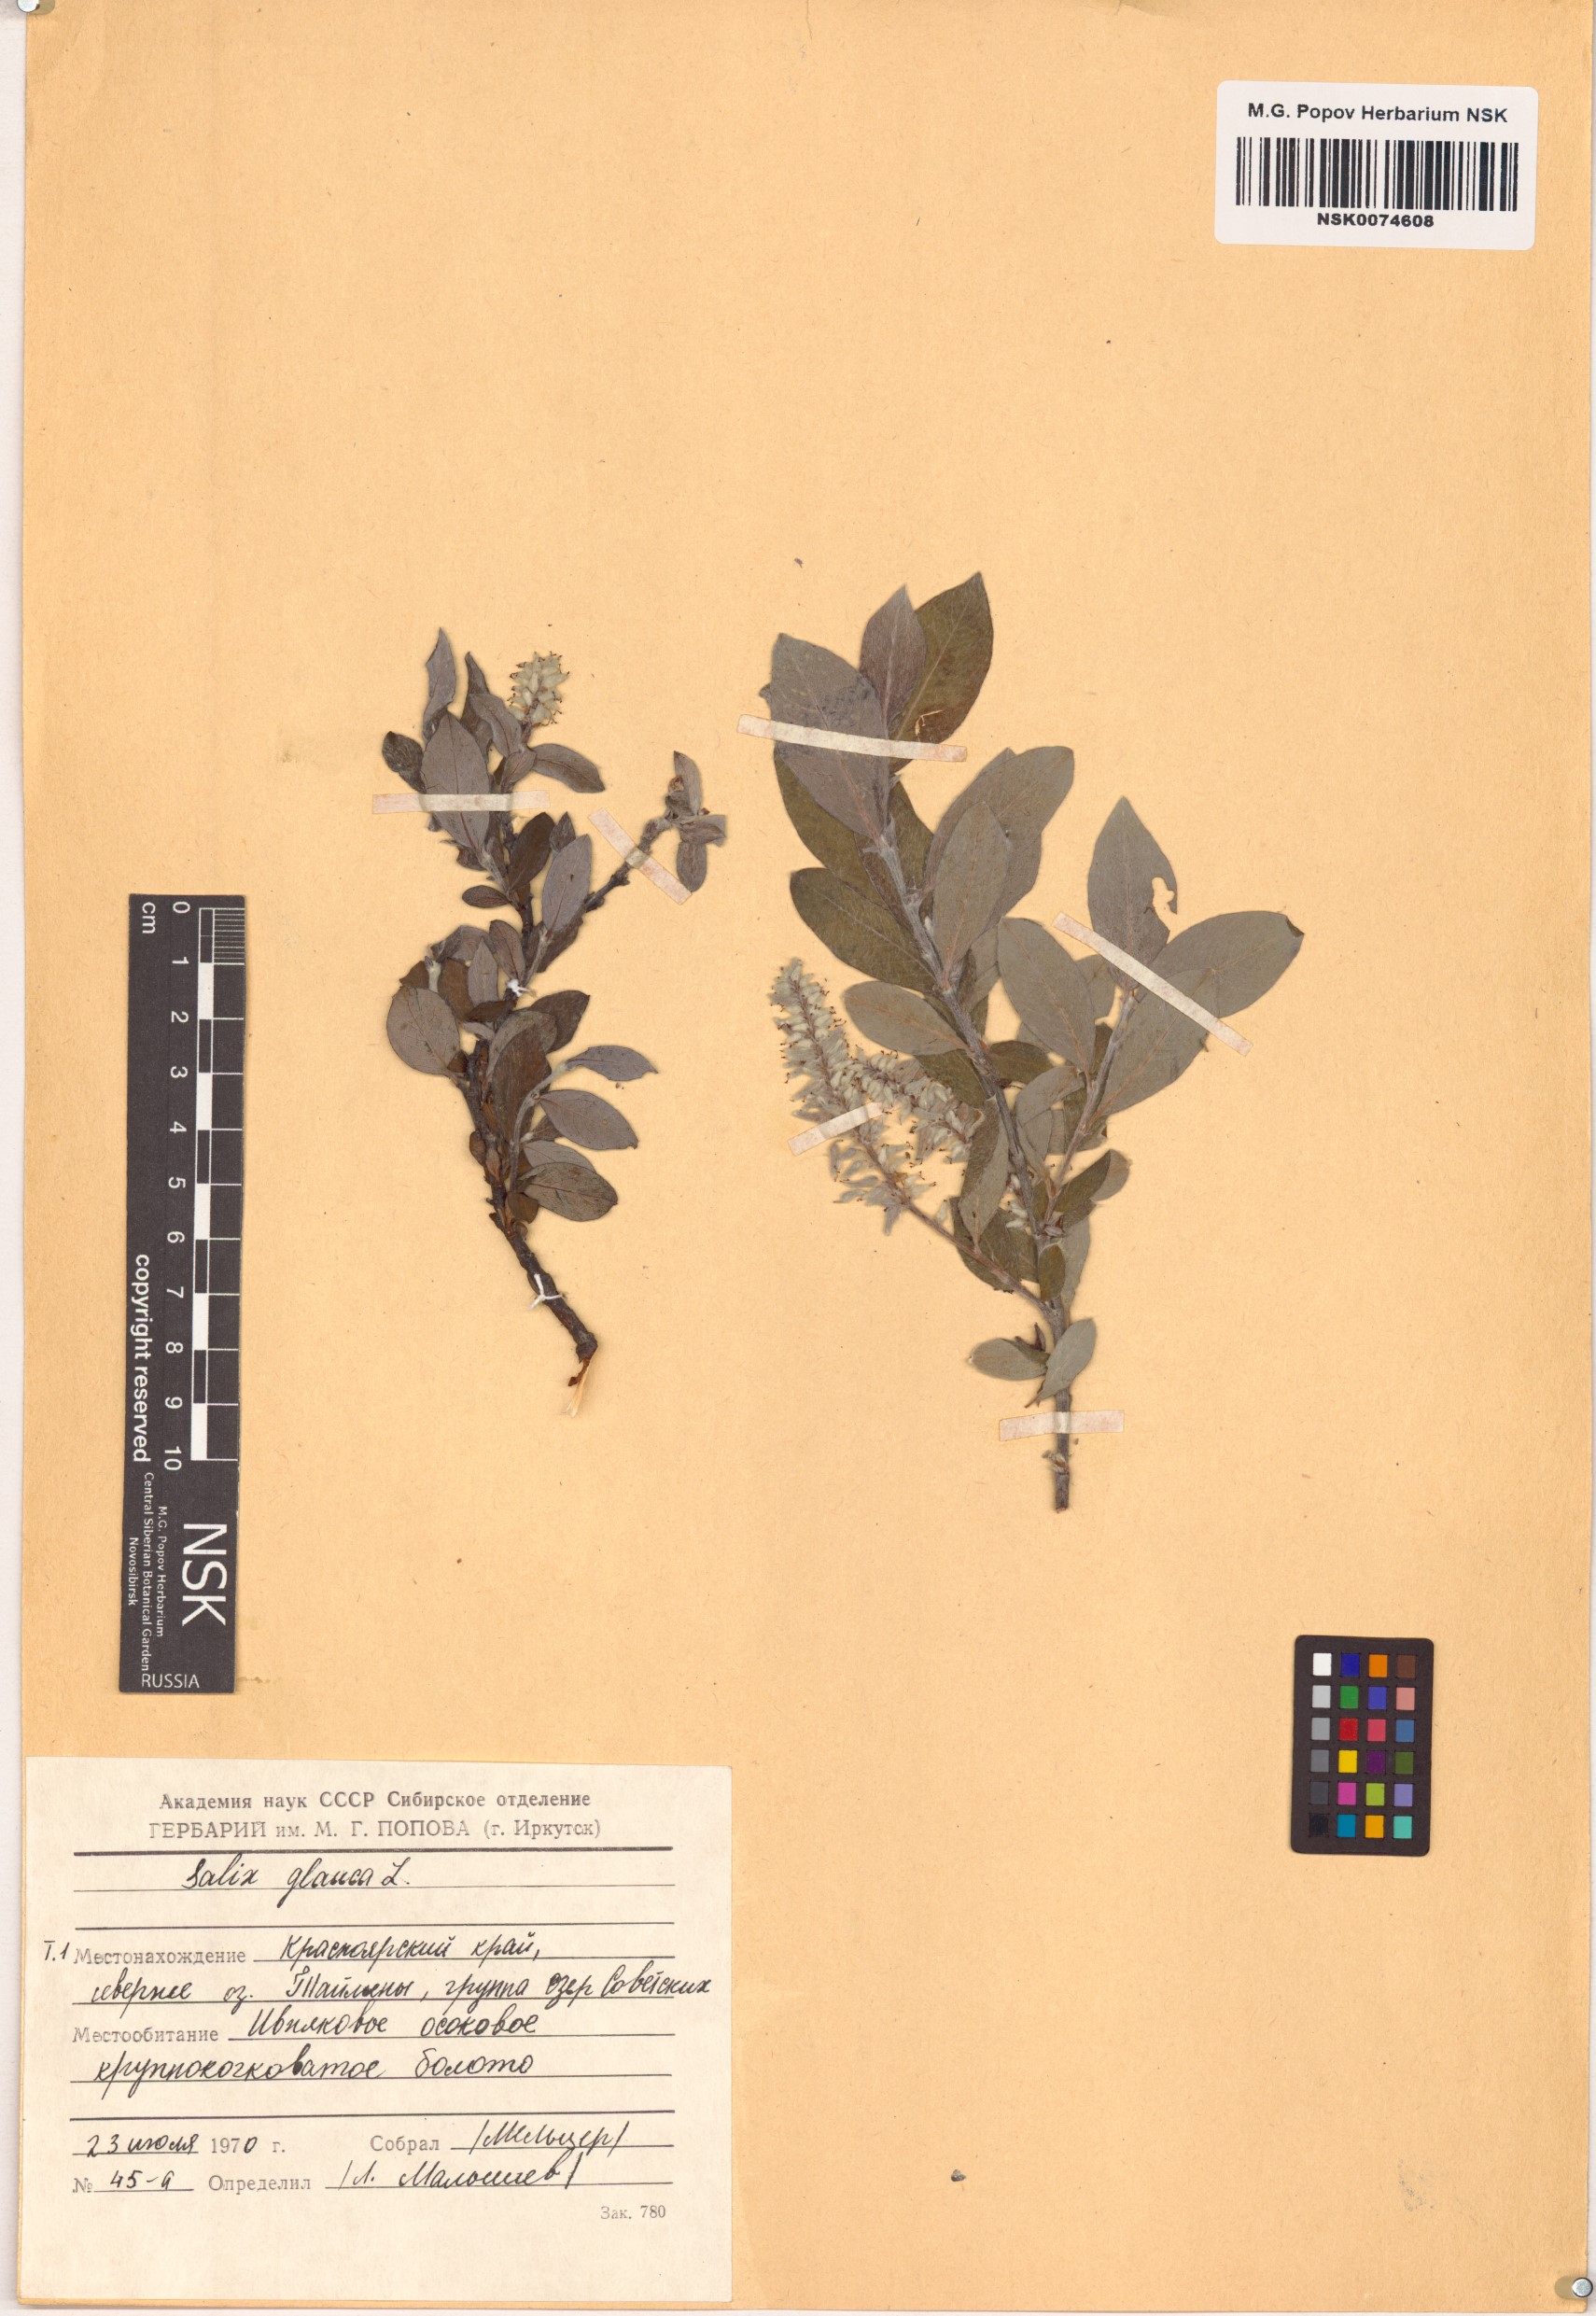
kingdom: Plantae
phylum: Tracheophyta
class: Magnoliopsida
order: Malpighiales
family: Salicaceae
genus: Salix
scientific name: Salix glauca
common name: Glaucous willow
